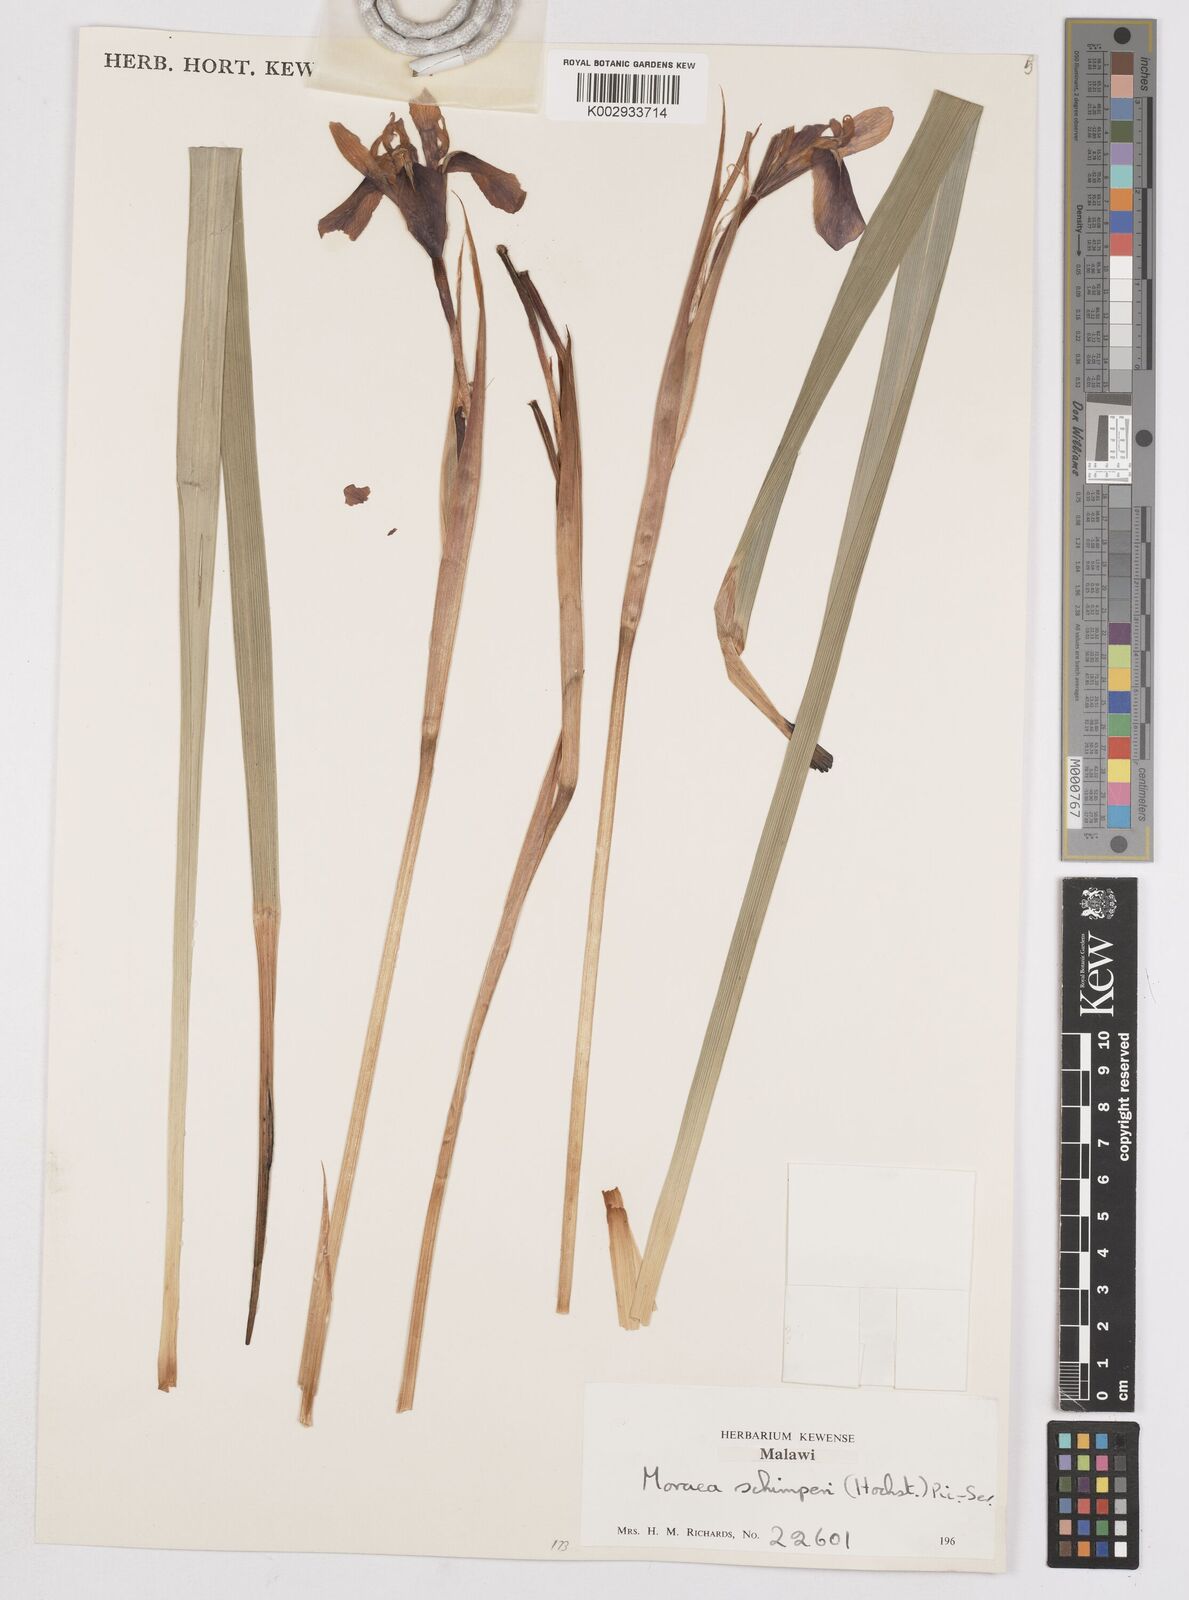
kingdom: Plantae
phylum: Tracheophyta
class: Liliopsida
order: Asparagales
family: Iridaceae
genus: Moraea
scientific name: Moraea schimperi
